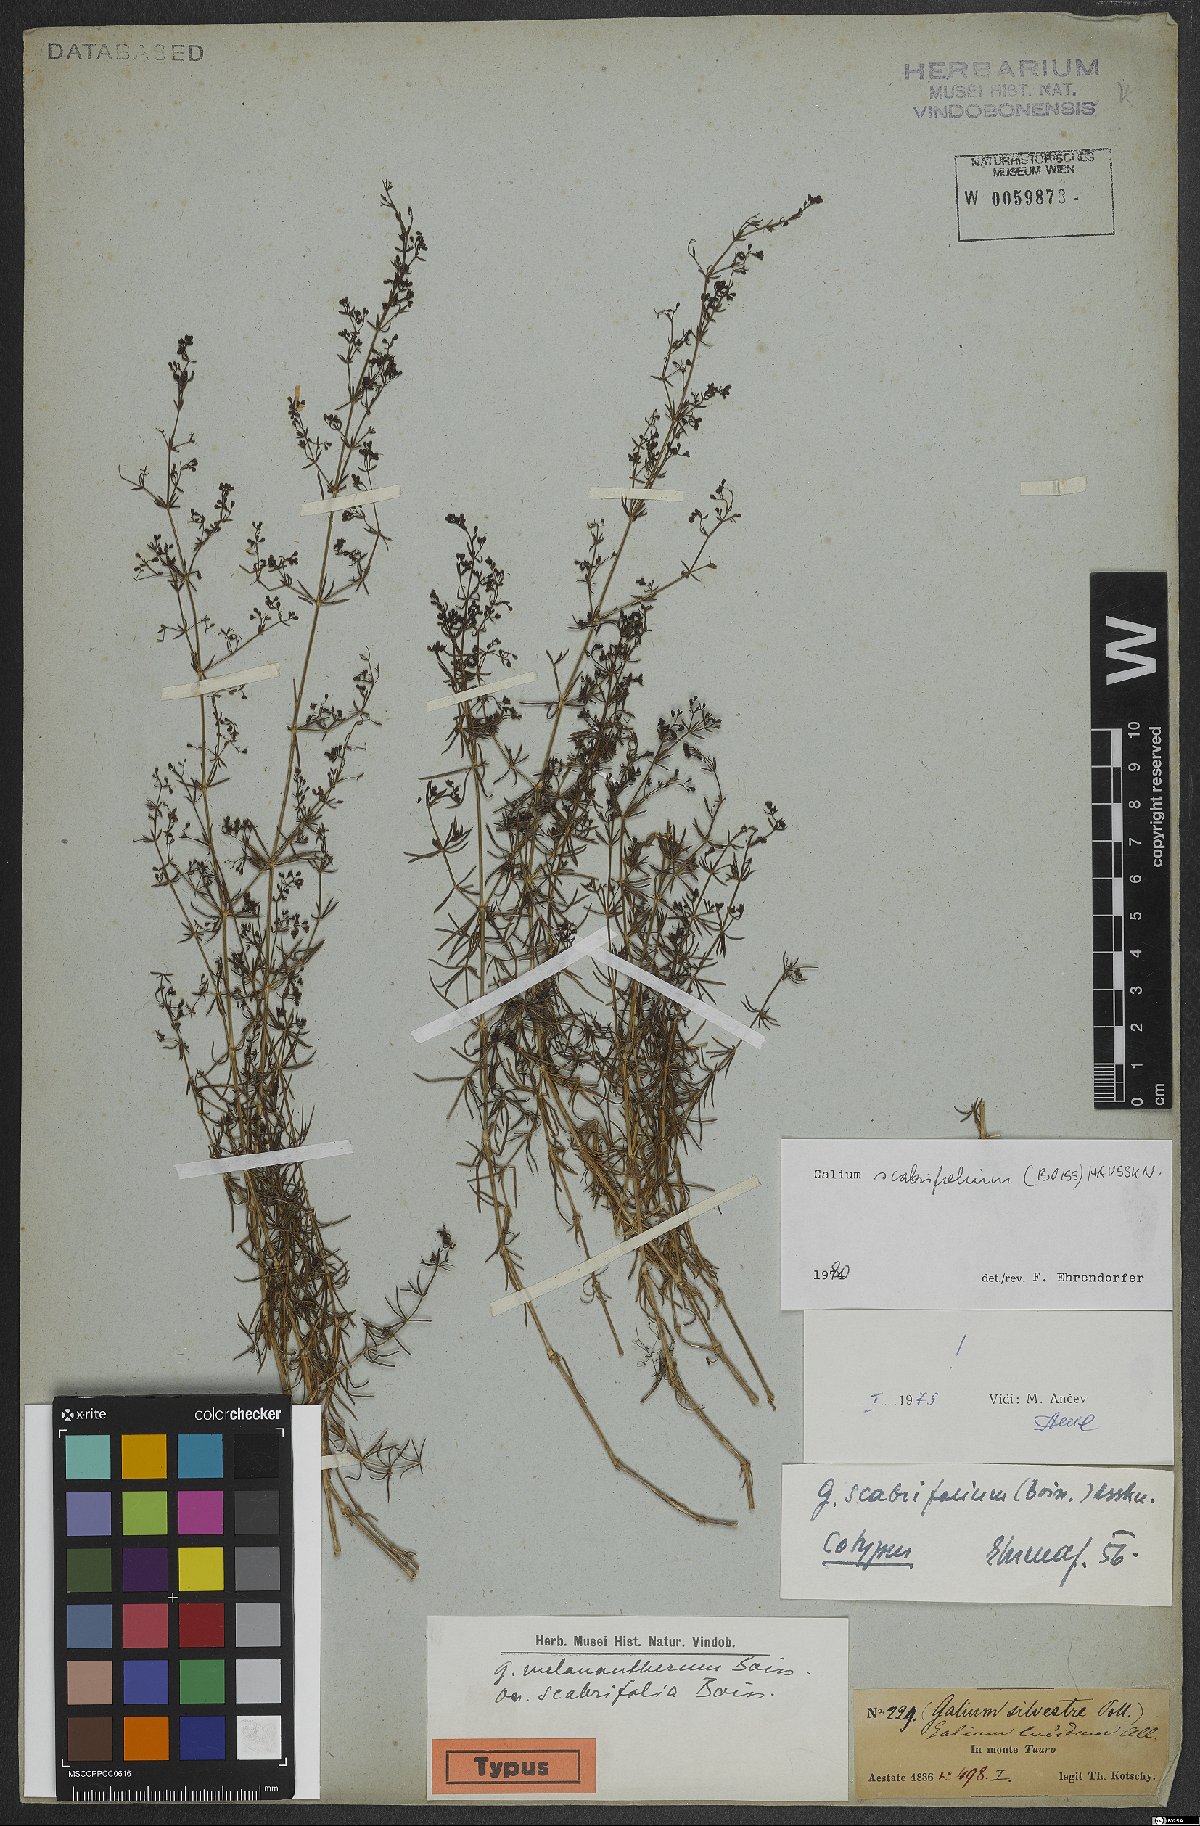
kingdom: Plantae
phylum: Tracheophyta
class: Magnoliopsida
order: Gentianales
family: Rubiaceae
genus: Galium
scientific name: Galium scabrifolium
